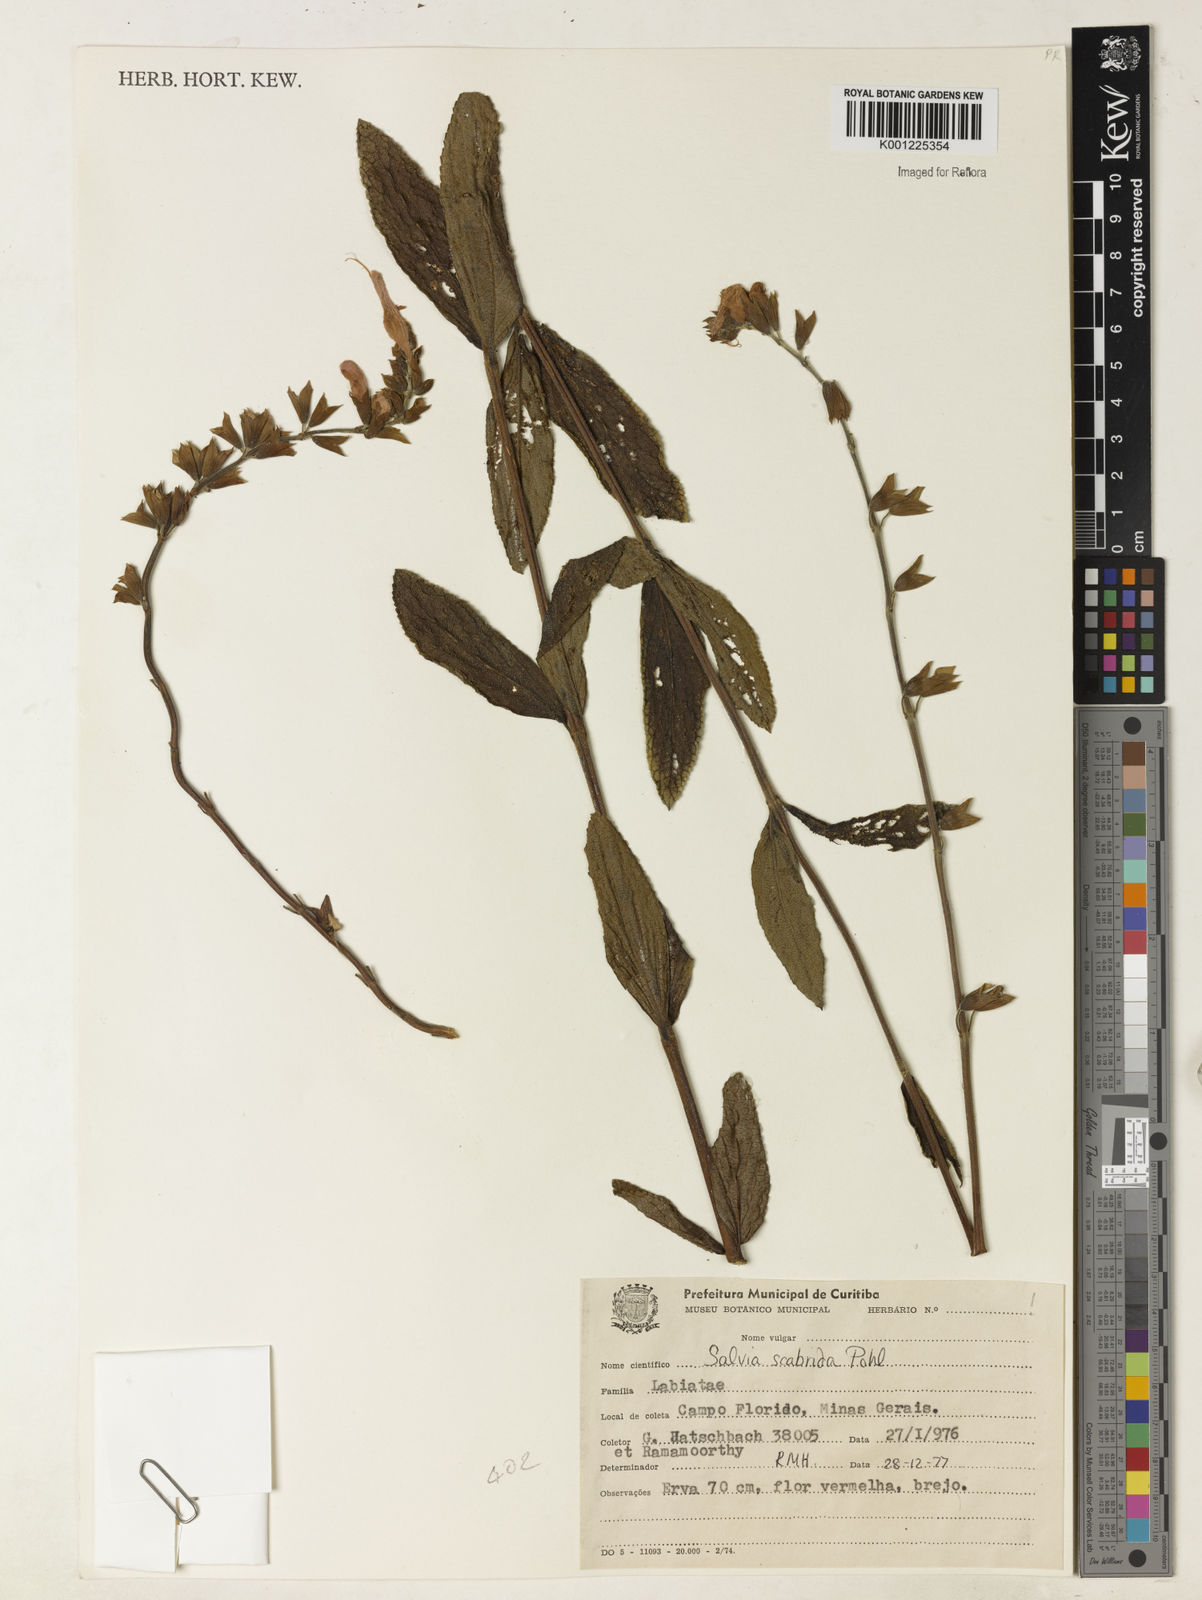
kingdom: Plantae
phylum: Tracheophyta
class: Magnoliopsida
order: Lamiales
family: Lamiaceae
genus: Salvia
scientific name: Salvia scabrida
